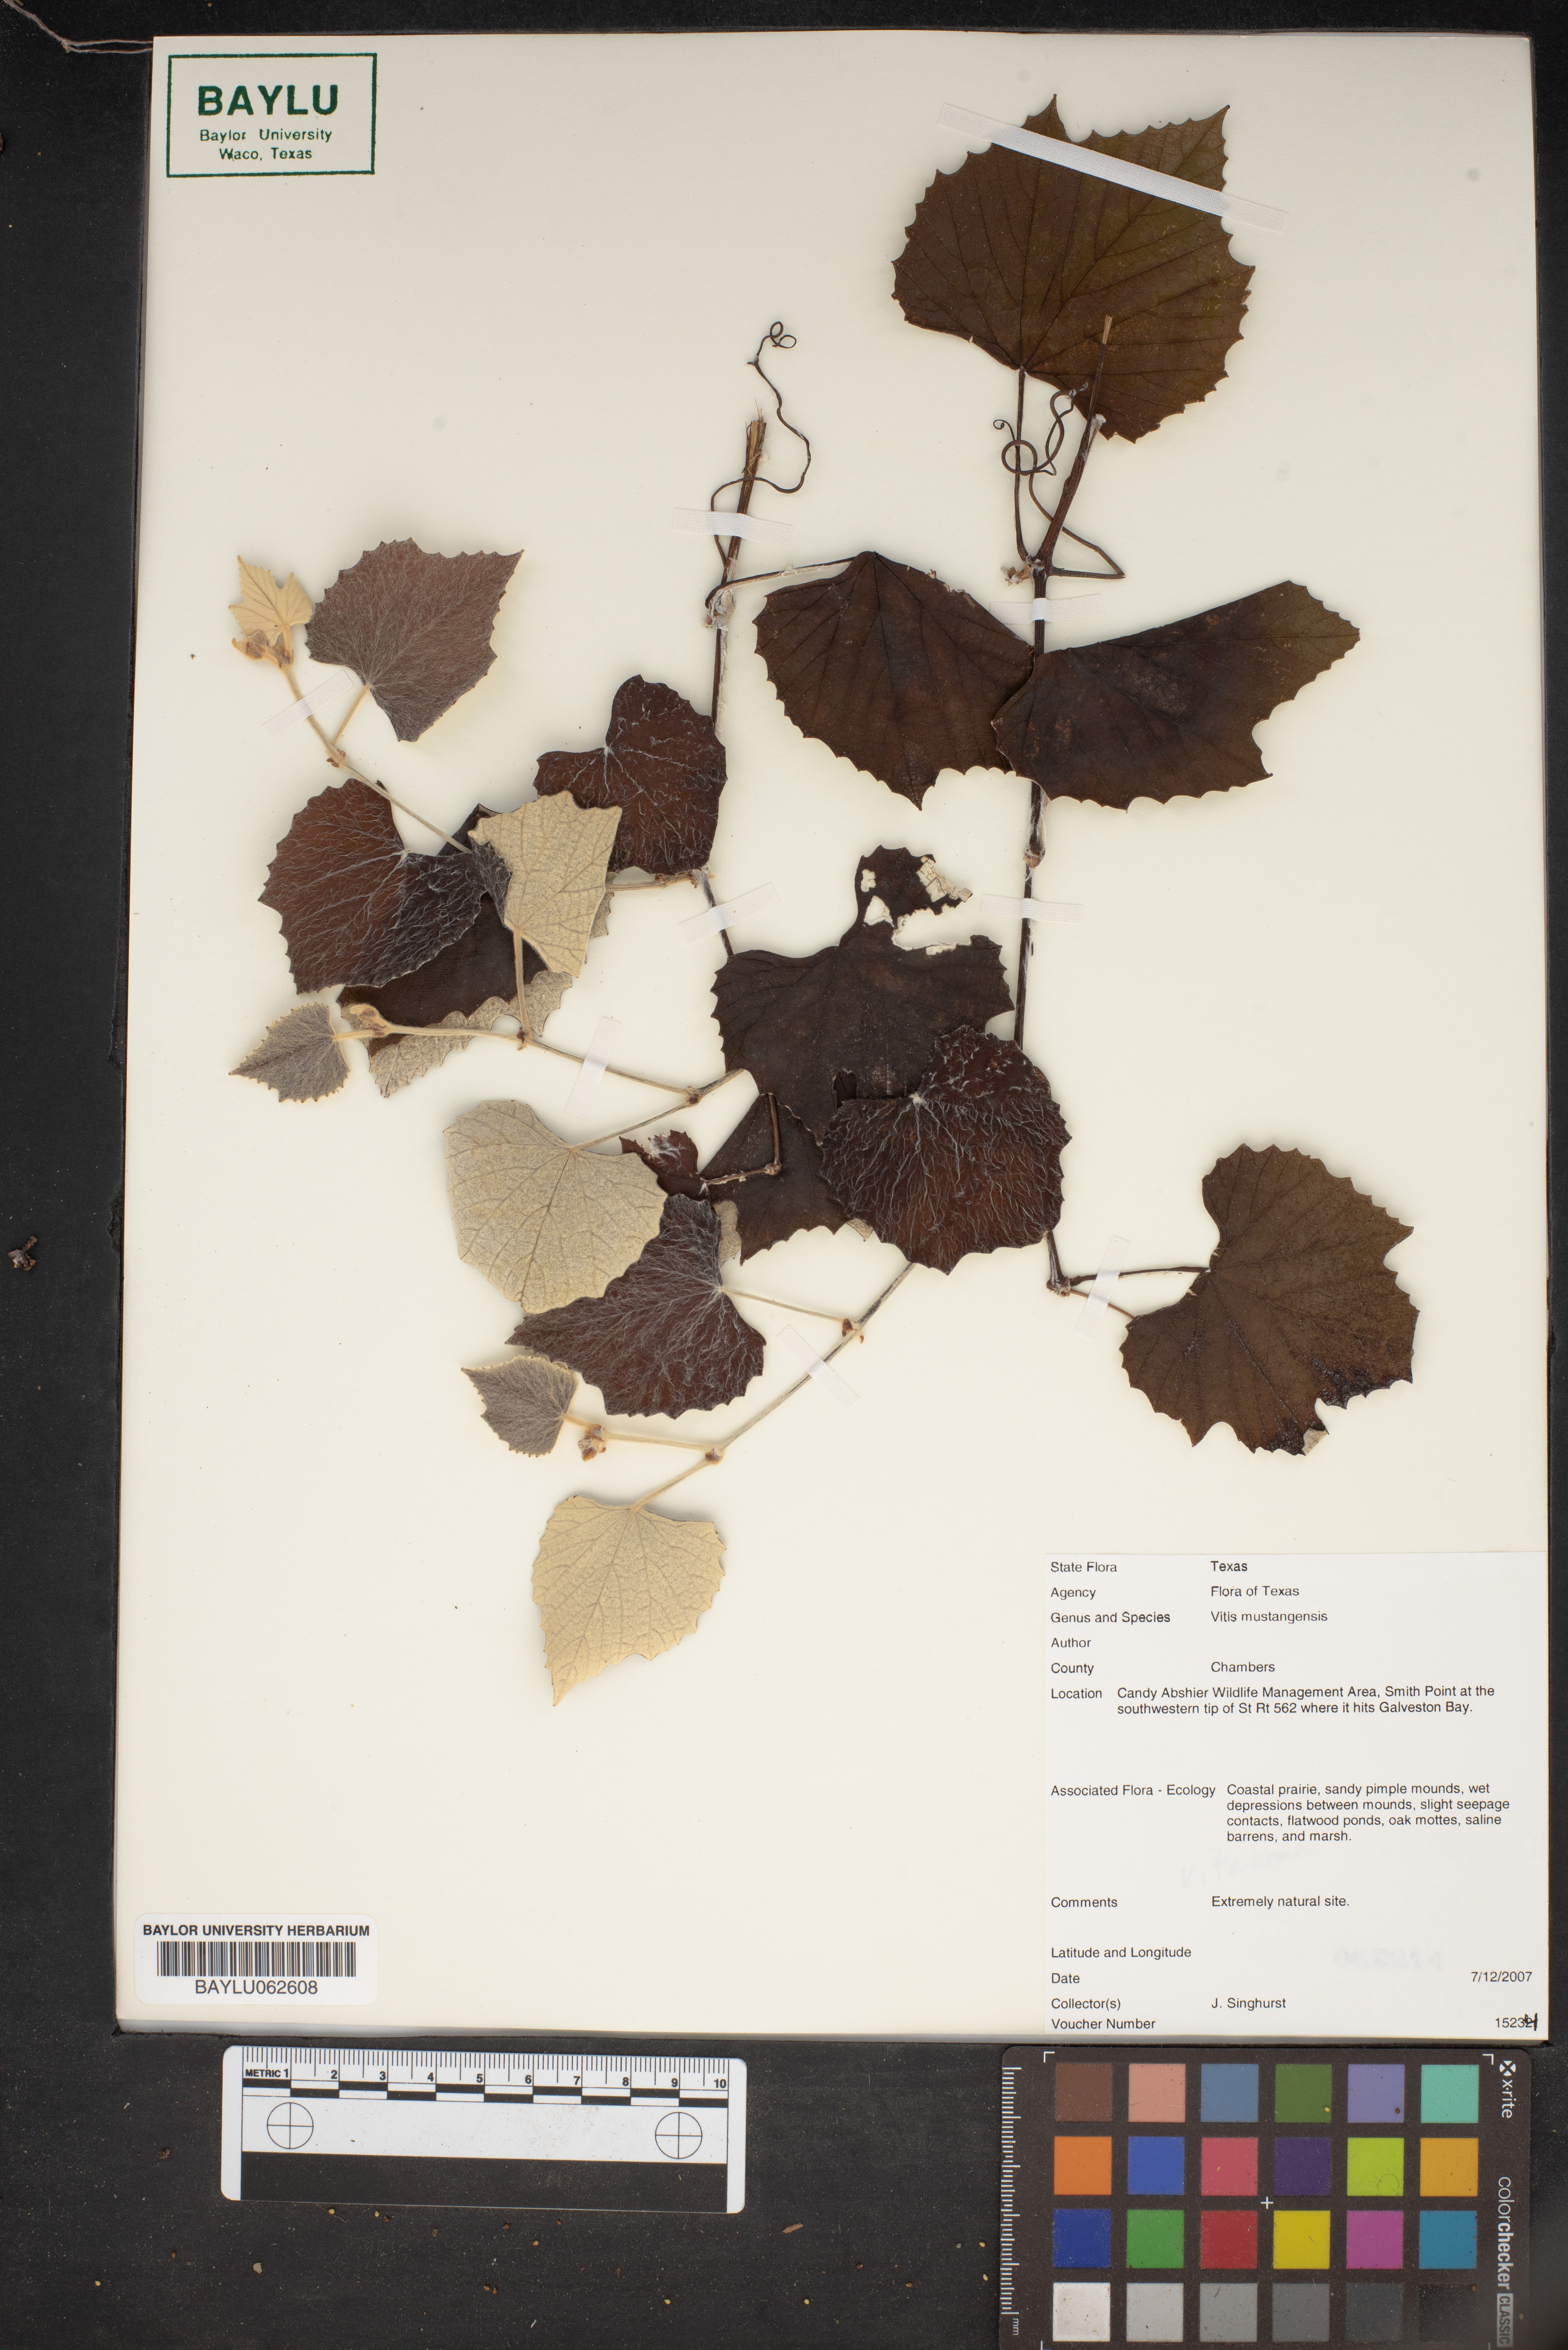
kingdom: Plantae
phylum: Tracheophyta
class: Magnoliopsida
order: Vitales
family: Vitaceae
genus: Vitis
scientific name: Vitis mustangensis
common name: Mustang grape
